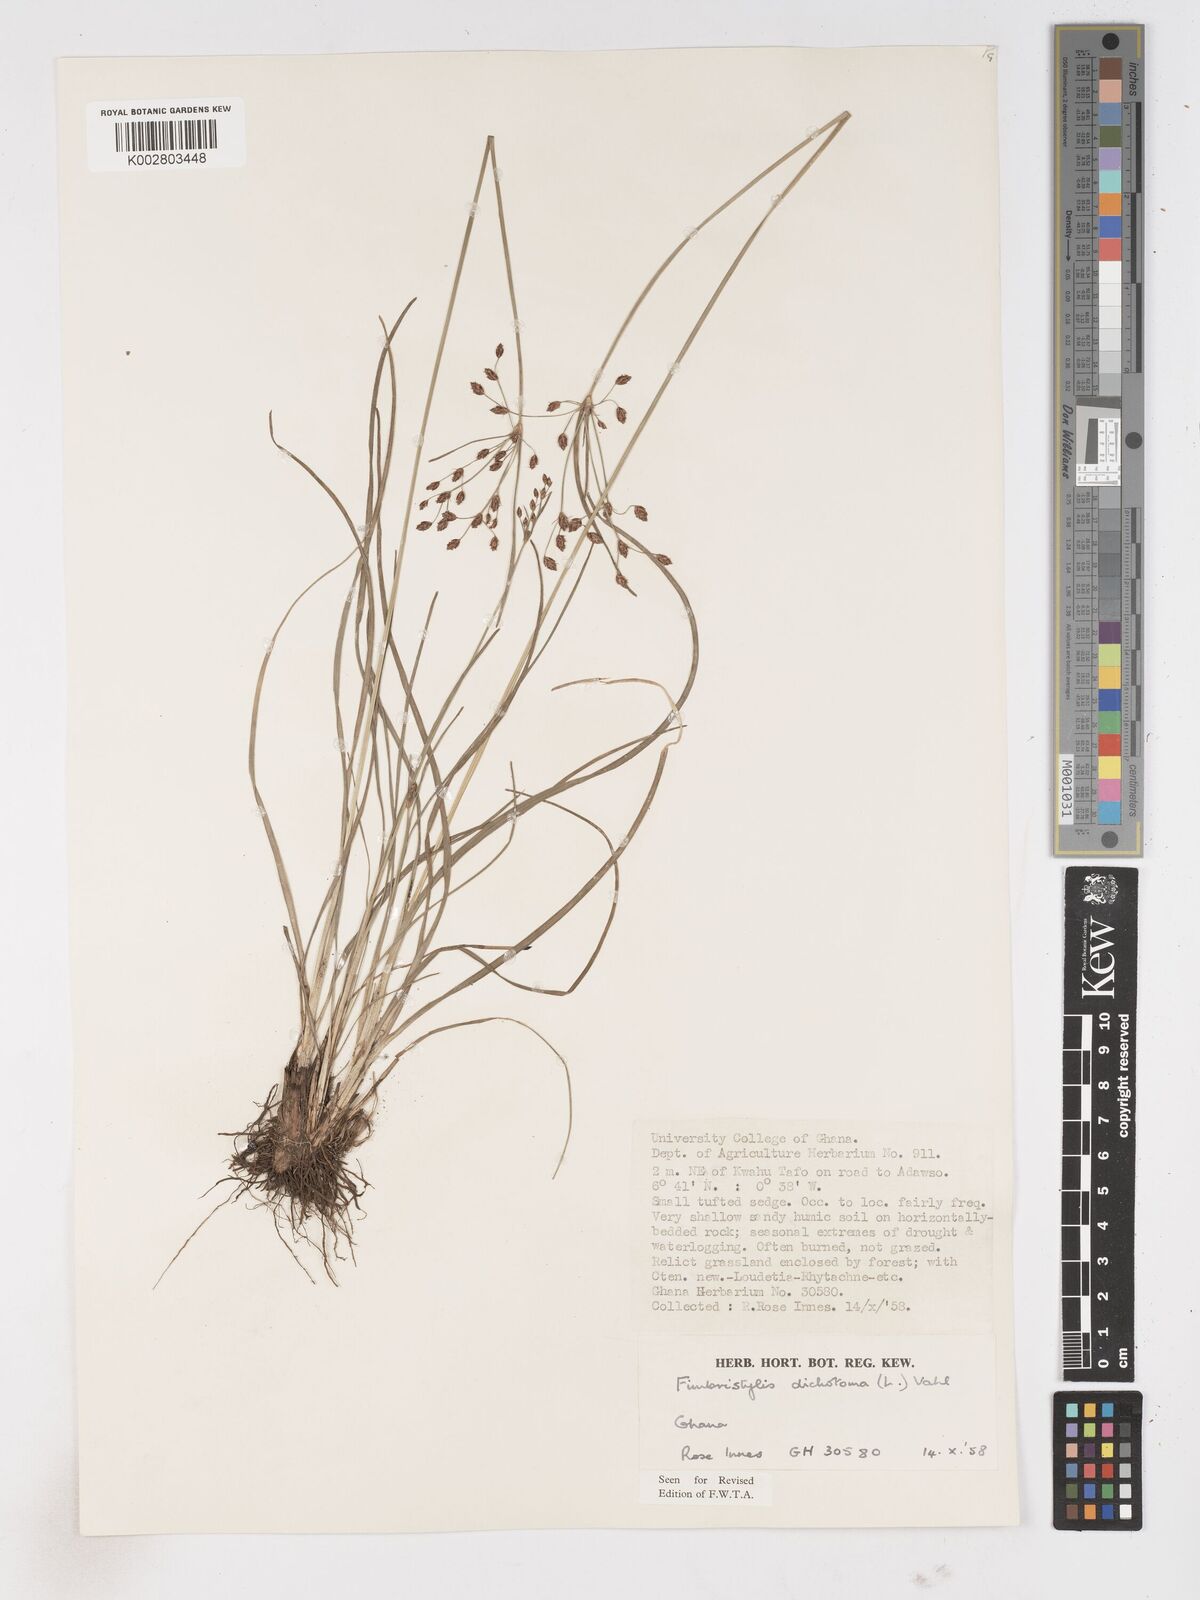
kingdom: Plantae
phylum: Tracheophyta
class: Liliopsida
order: Poales
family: Cyperaceae
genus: Fimbristylis
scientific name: Fimbristylis dichotoma
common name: Forked fimbry
